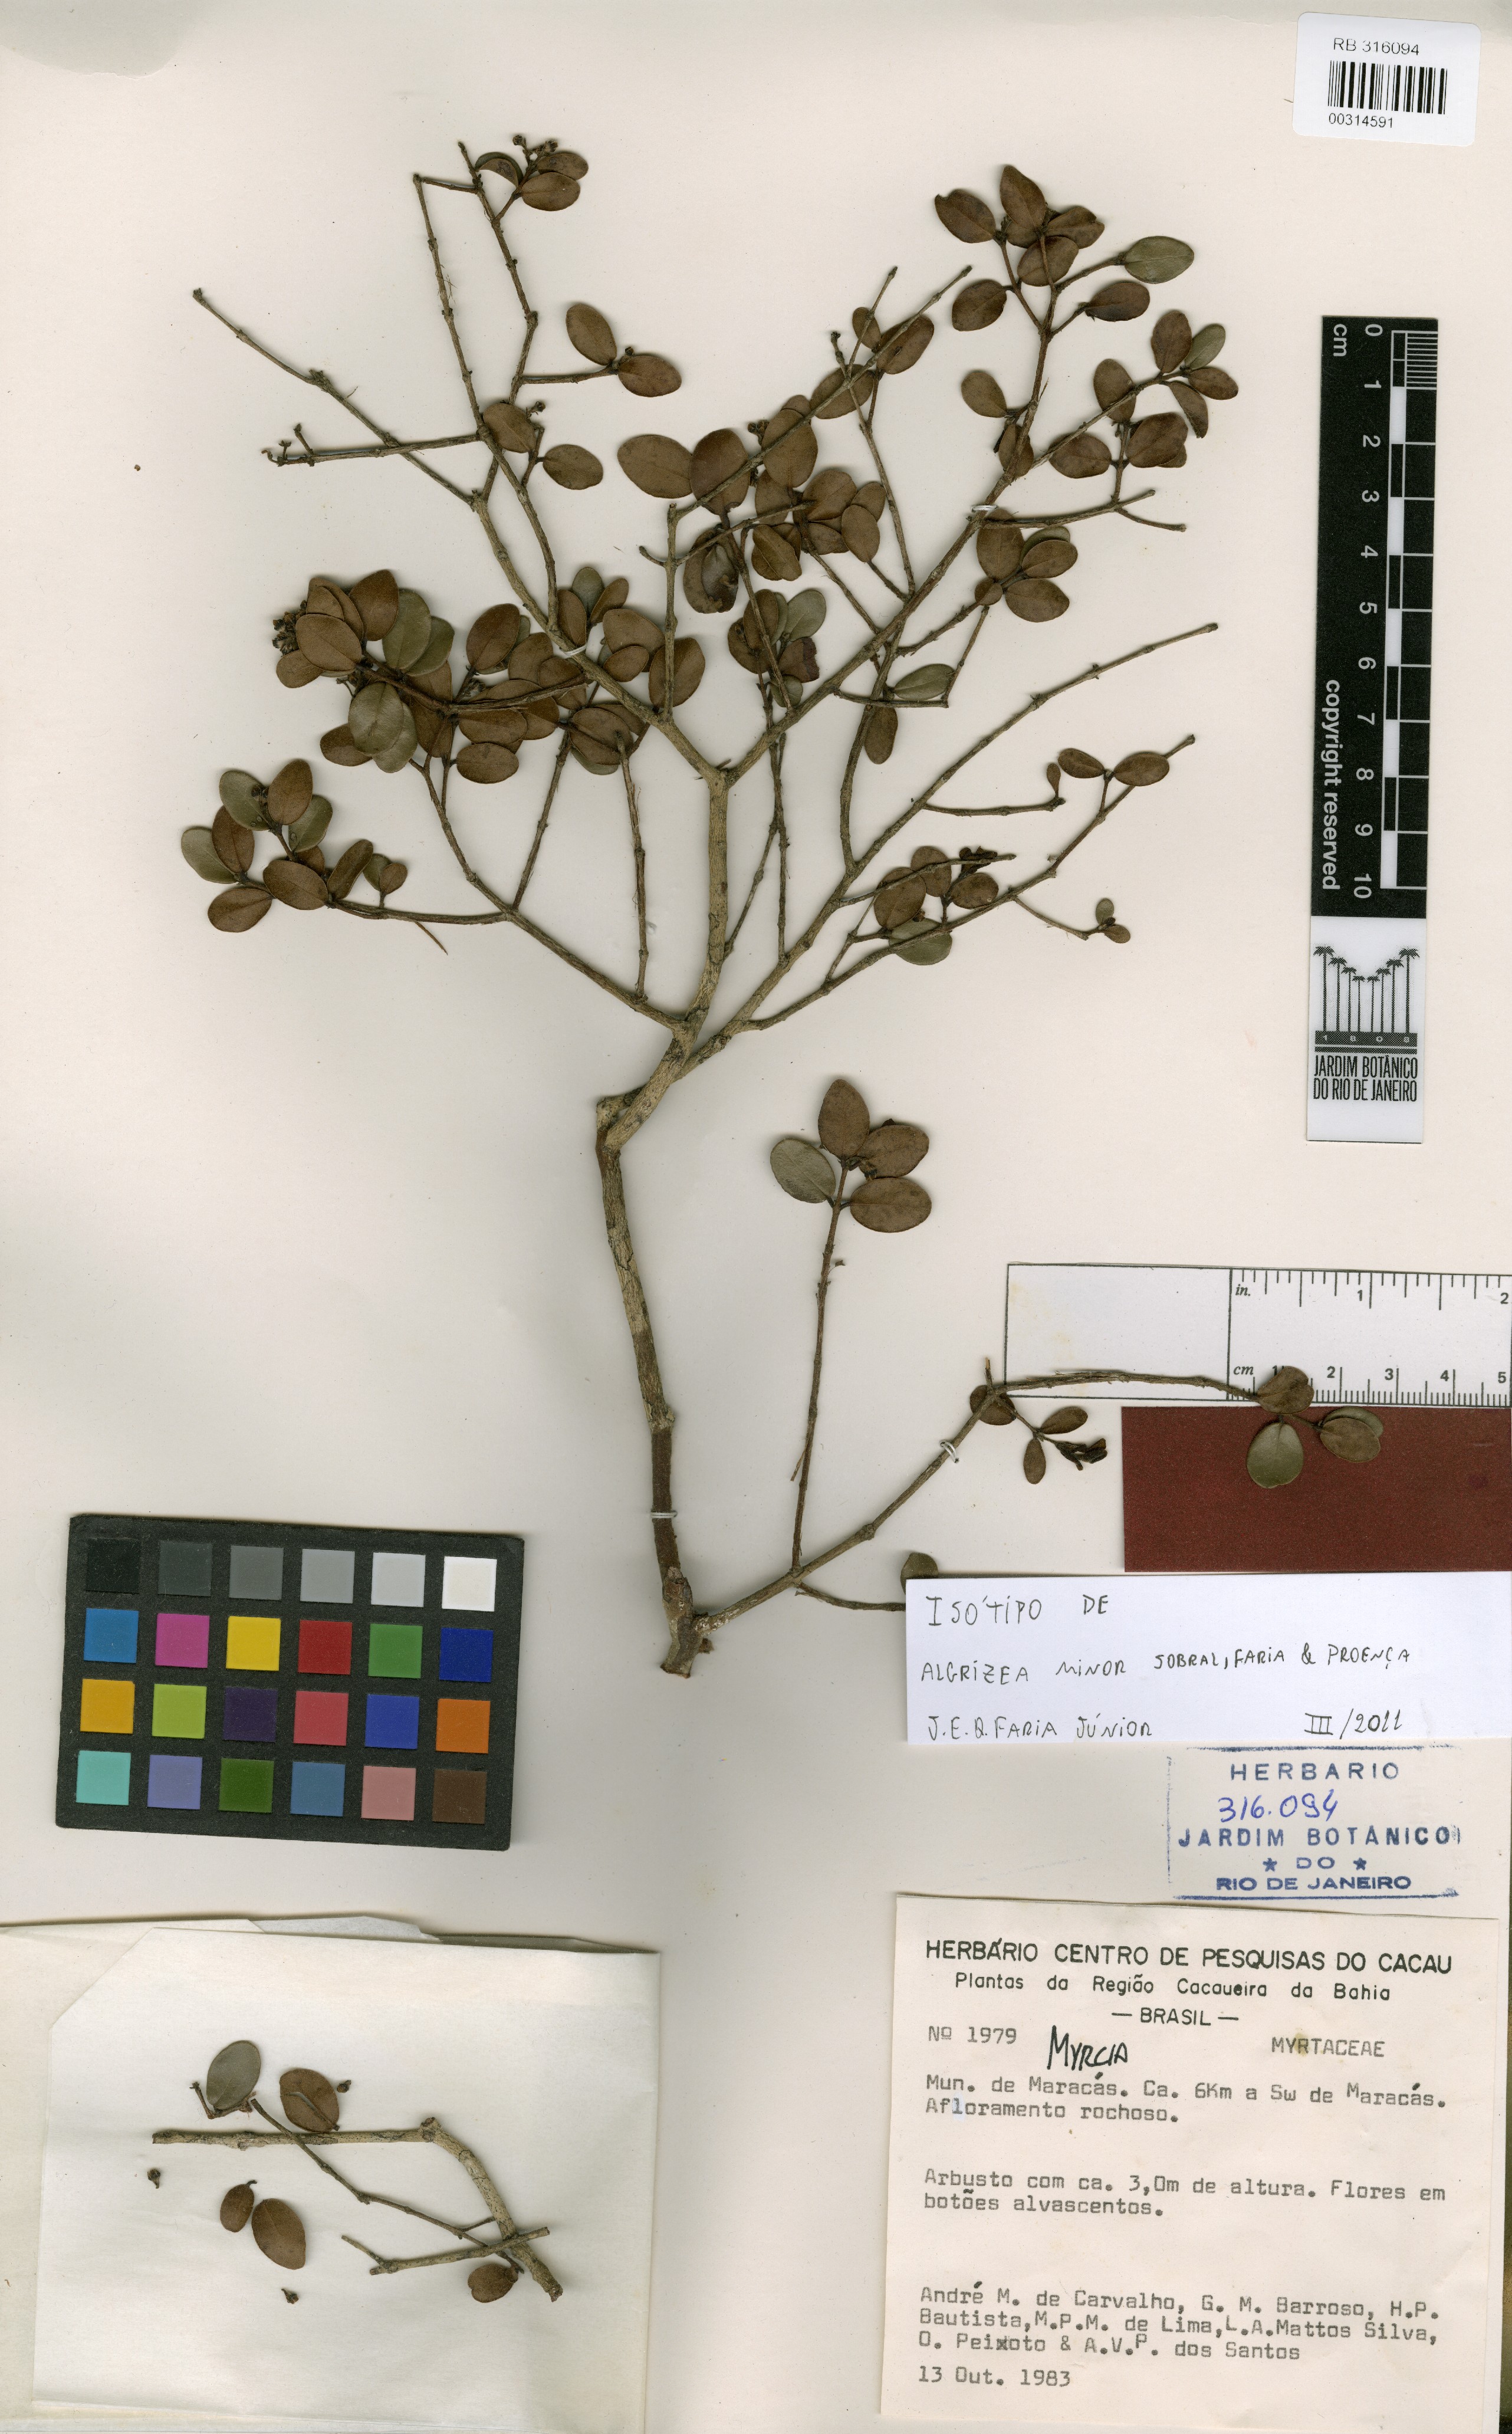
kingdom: Plantae
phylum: Tracheophyta
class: Magnoliopsida
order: Myrtales
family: Myrtaceae
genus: Algrizea
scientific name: Algrizea minor
